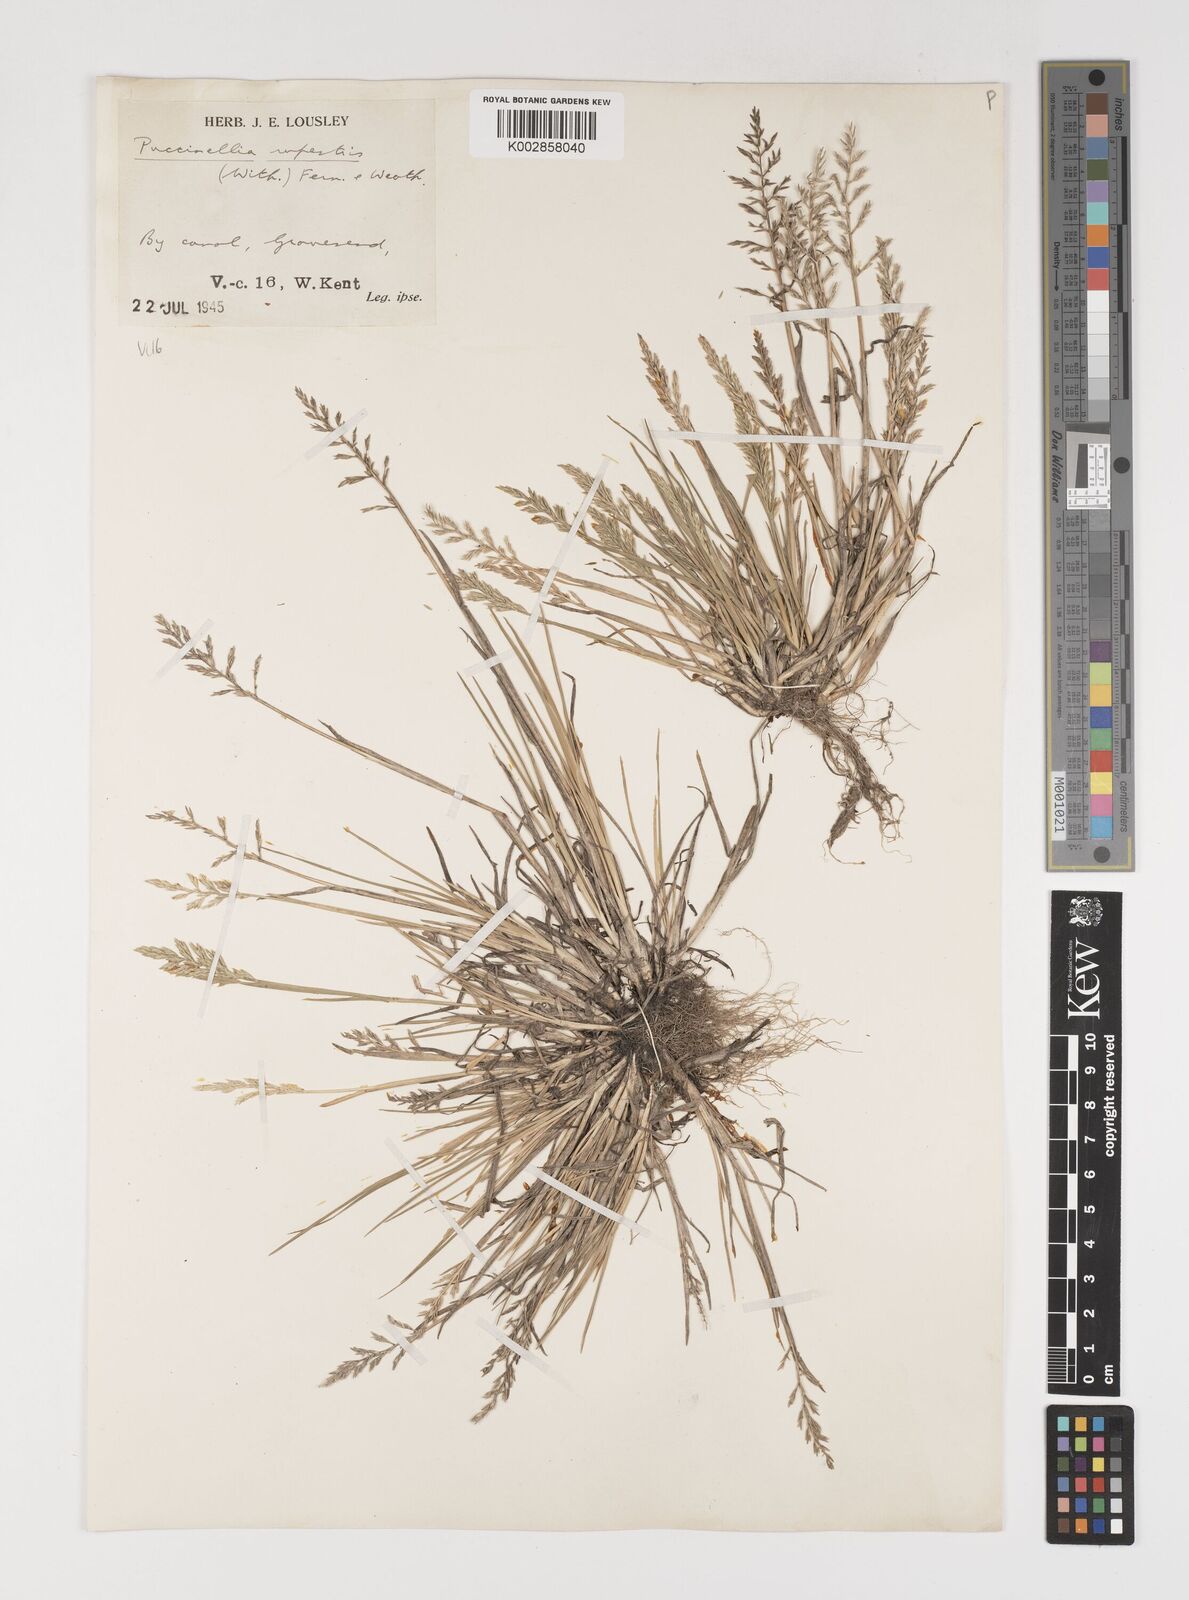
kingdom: Plantae
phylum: Tracheophyta
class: Liliopsida
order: Poales
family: Poaceae
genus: Puccinellia
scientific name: Puccinellia rupestris
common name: Stiff saltmarsh-grass
